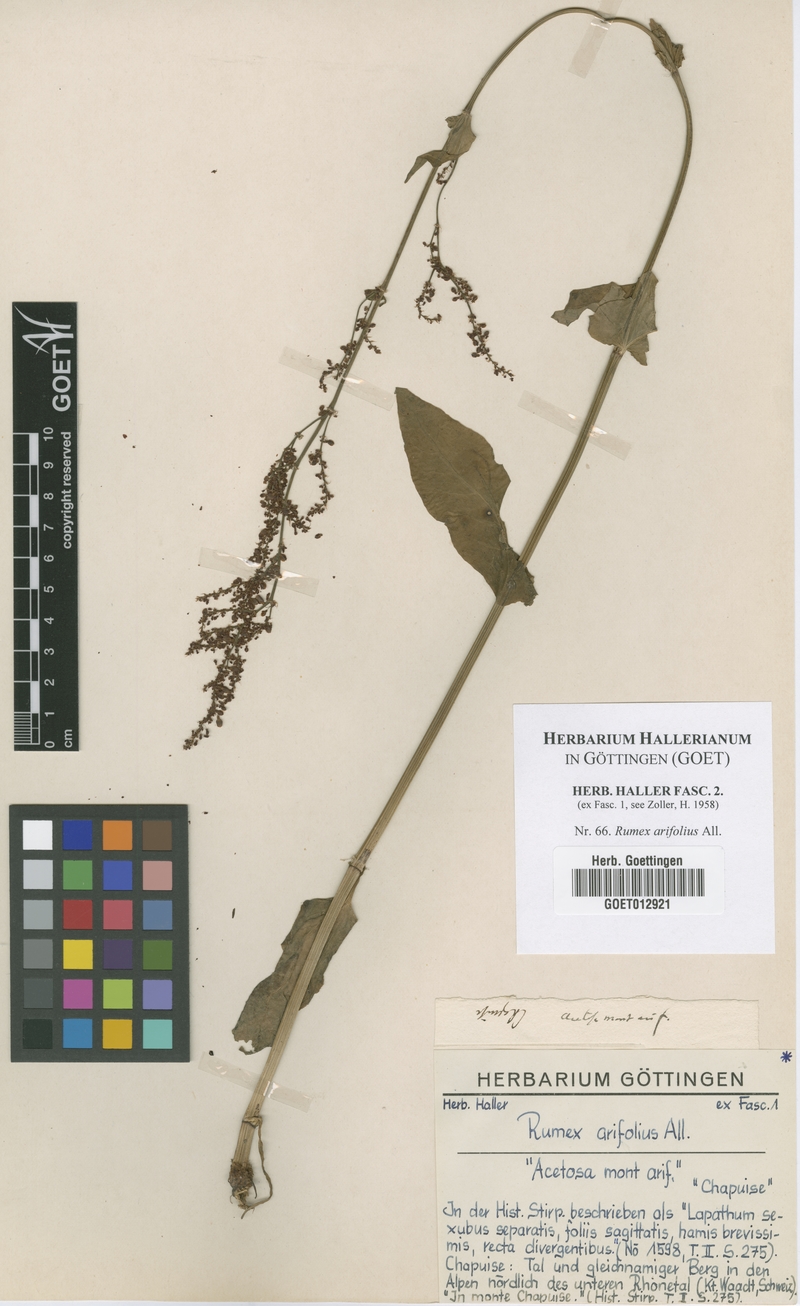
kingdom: Plantae
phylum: Tracheophyta
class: Magnoliopsida
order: Caryophyllales
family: Polygonaceae
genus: Rumex
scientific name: Rumex arifolius
